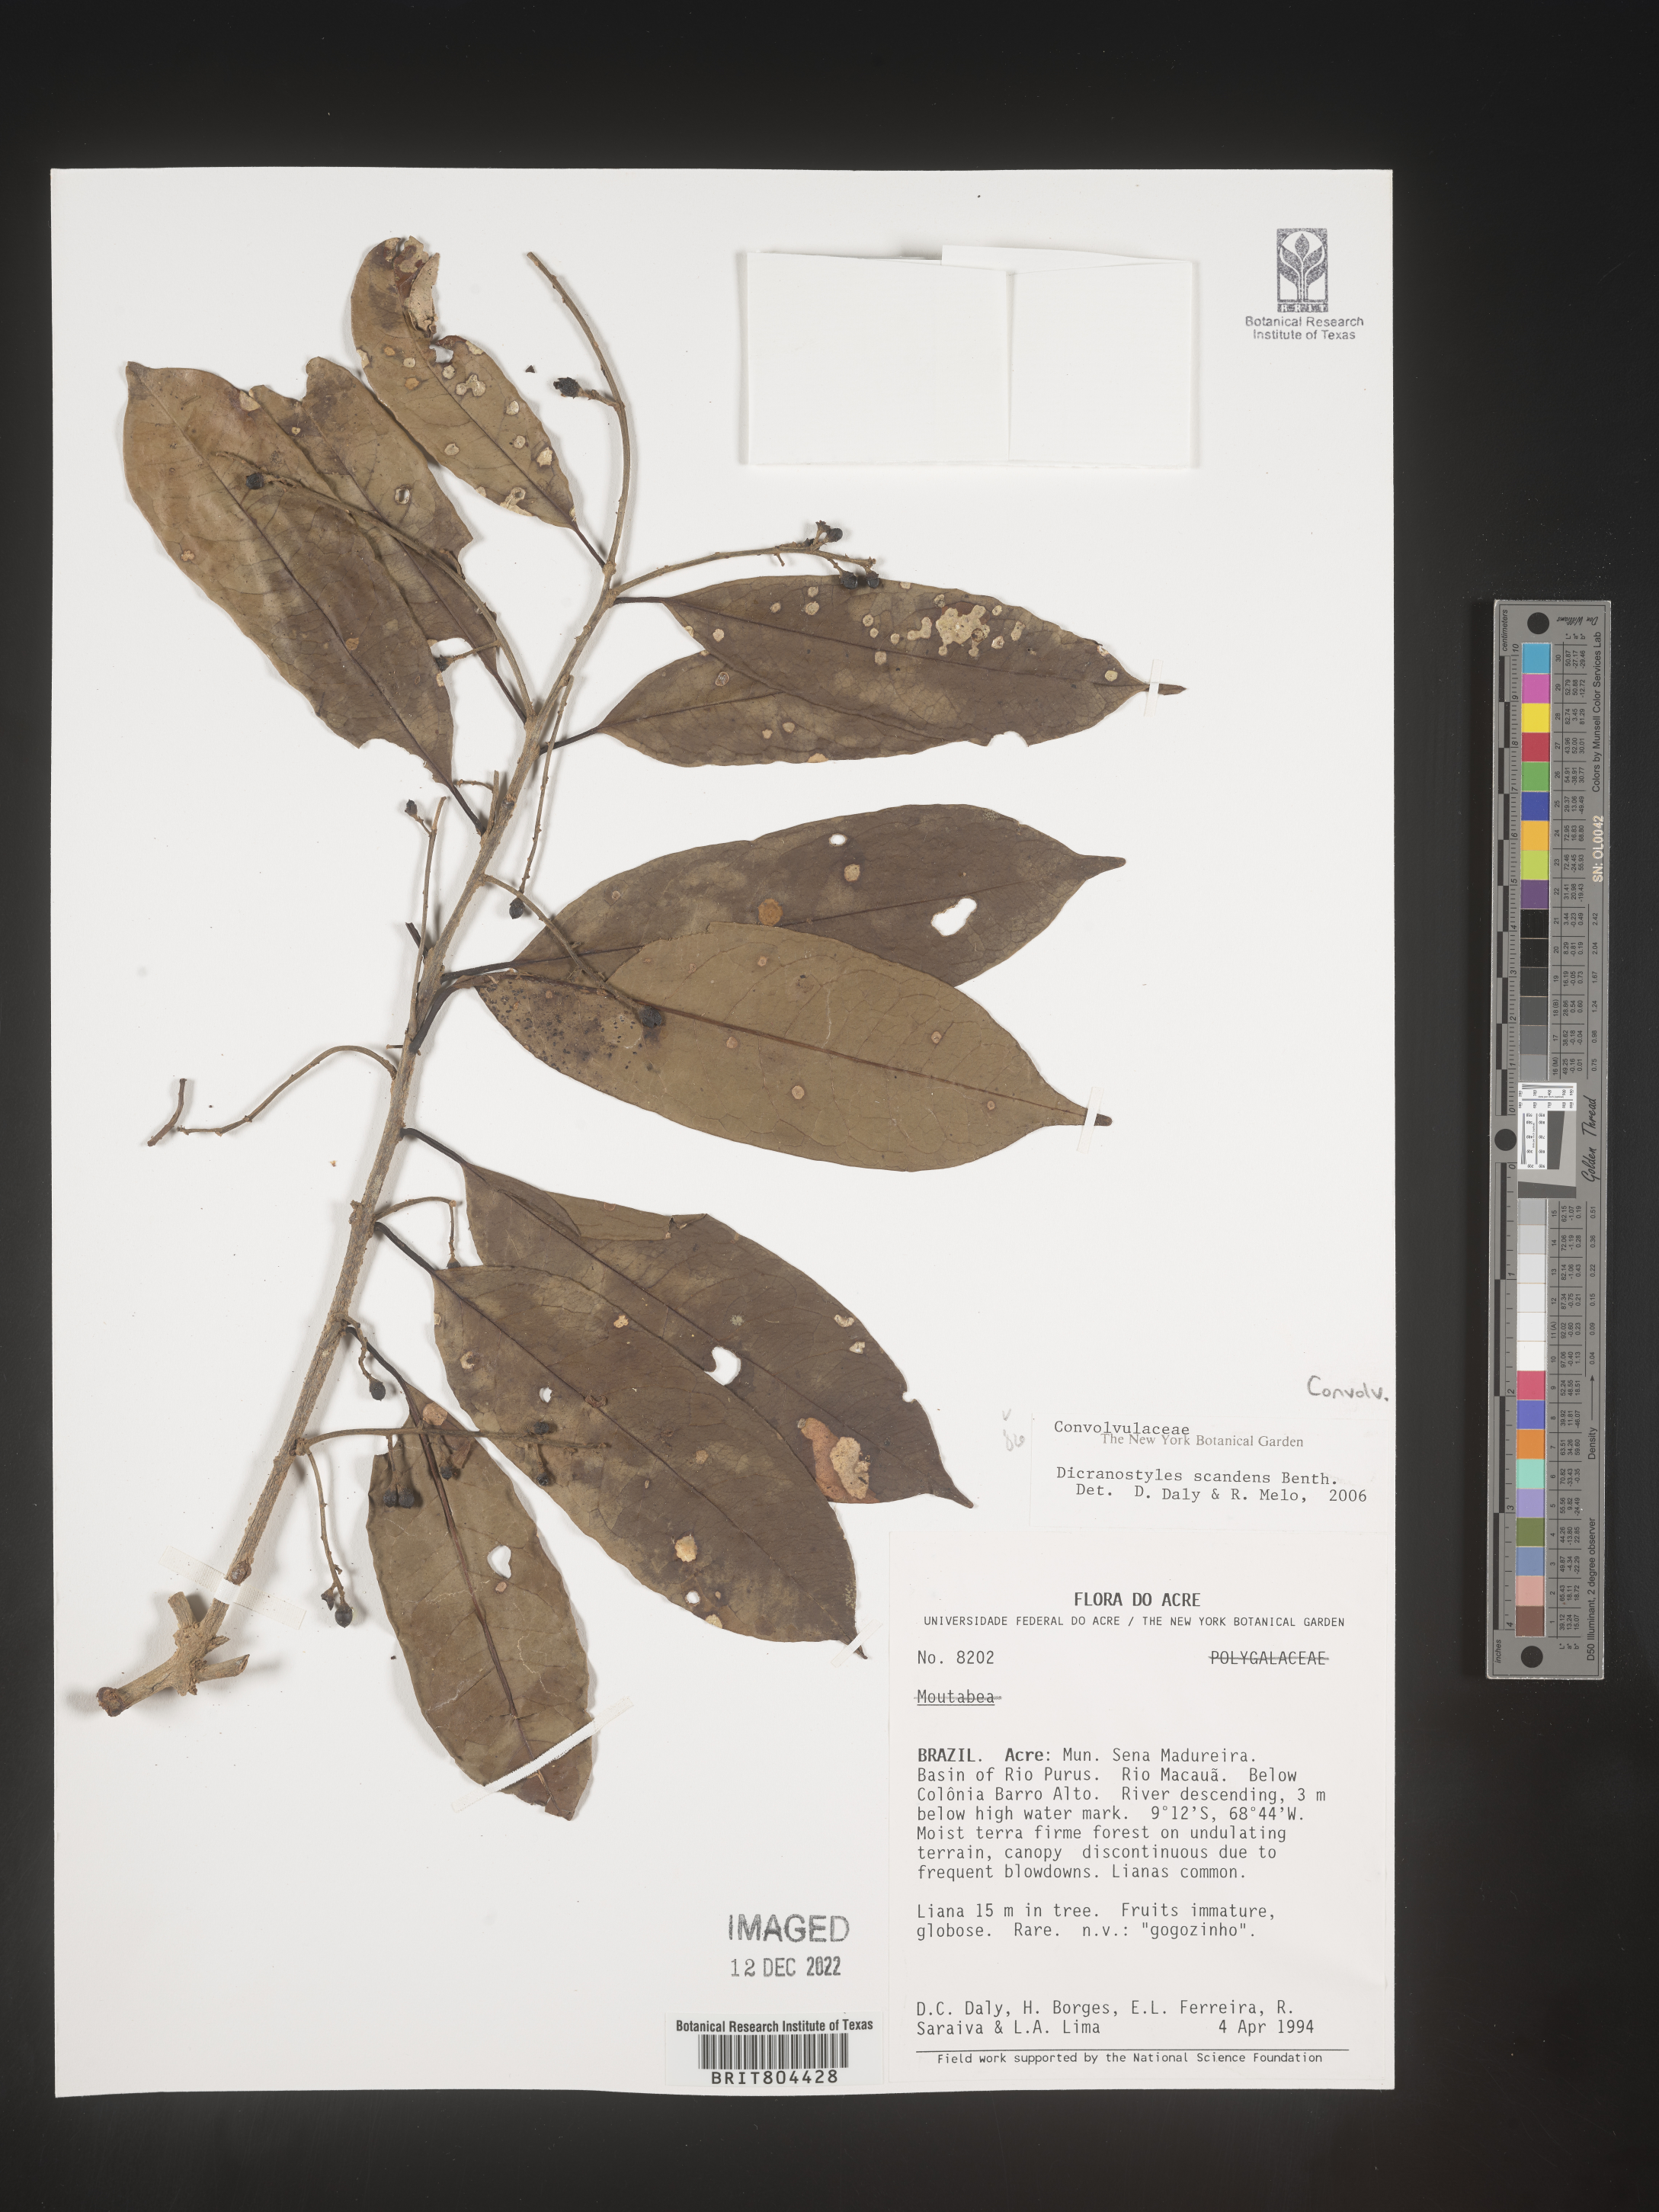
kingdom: Plantae
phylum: Tracheophyta
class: Magnoliopsida
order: Solanales
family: Convolvulaceae
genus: Dicranostyles
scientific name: Dicranostyles
